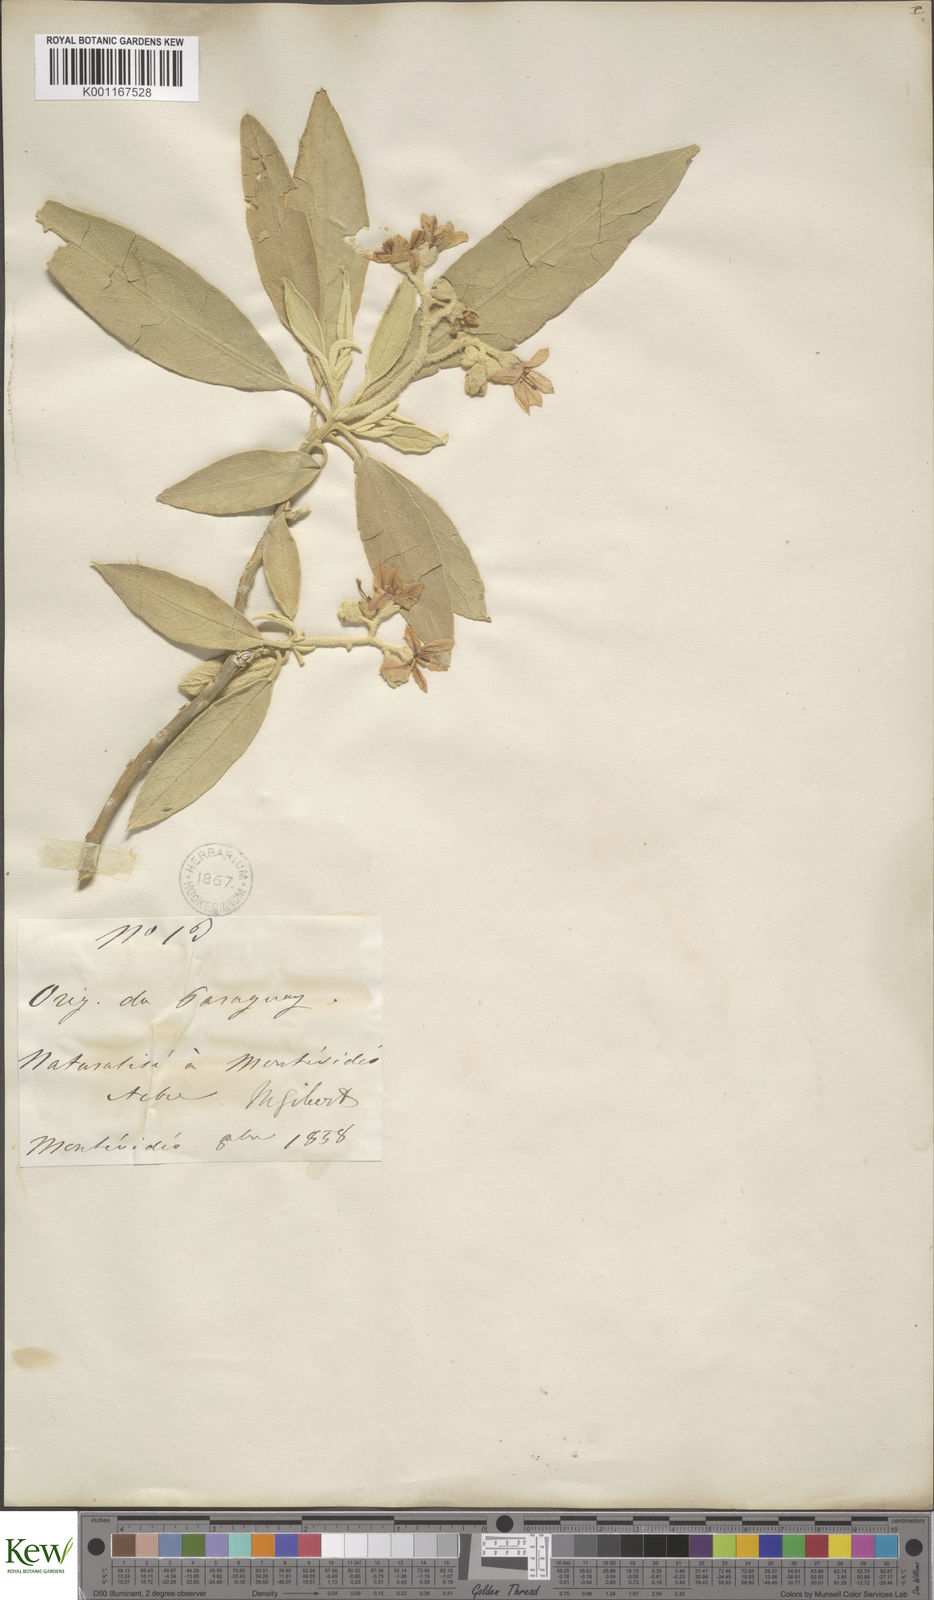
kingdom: Plantae
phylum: Tracheophyta
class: Magnoliopsida
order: Solanales
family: Solanaceae
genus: Solanum
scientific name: Solanum erianthum
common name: Tobacco-tree
